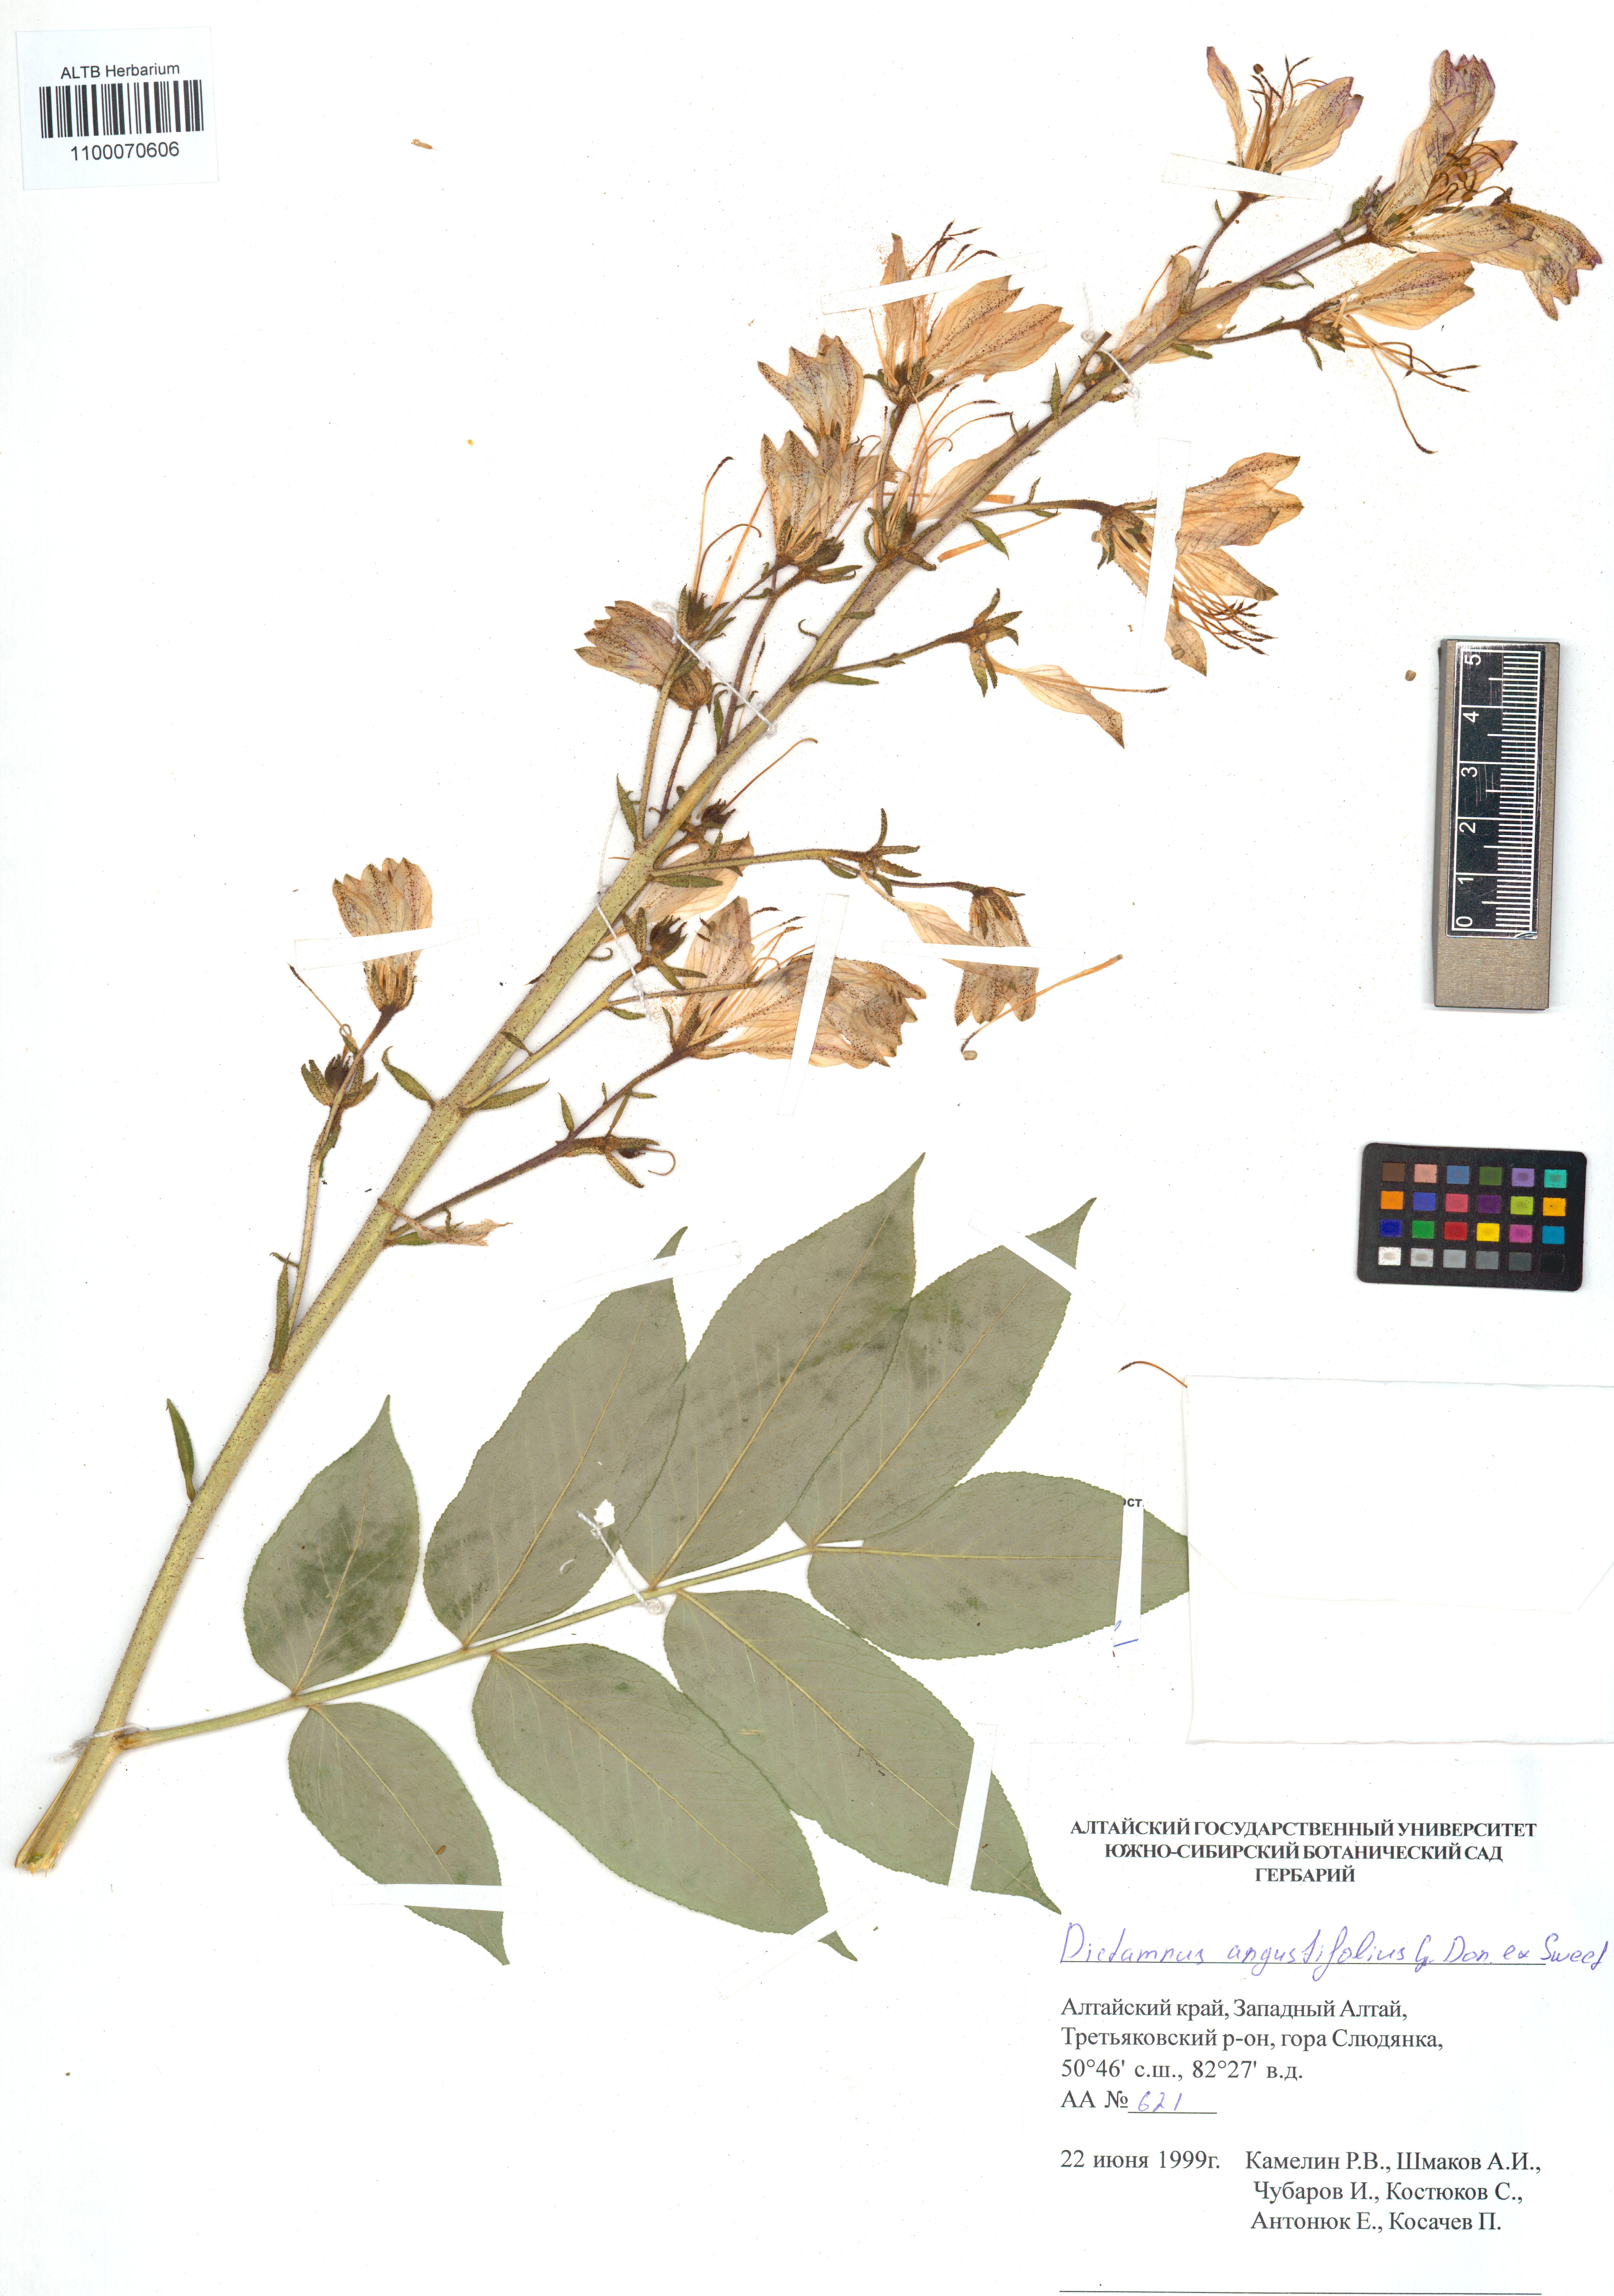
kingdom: Plantae
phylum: Tracheophyta
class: Magnoliopsida
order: Sapindales
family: Rutaceae
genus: Dictamnus
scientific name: Dictamnus albus
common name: Gasplant
